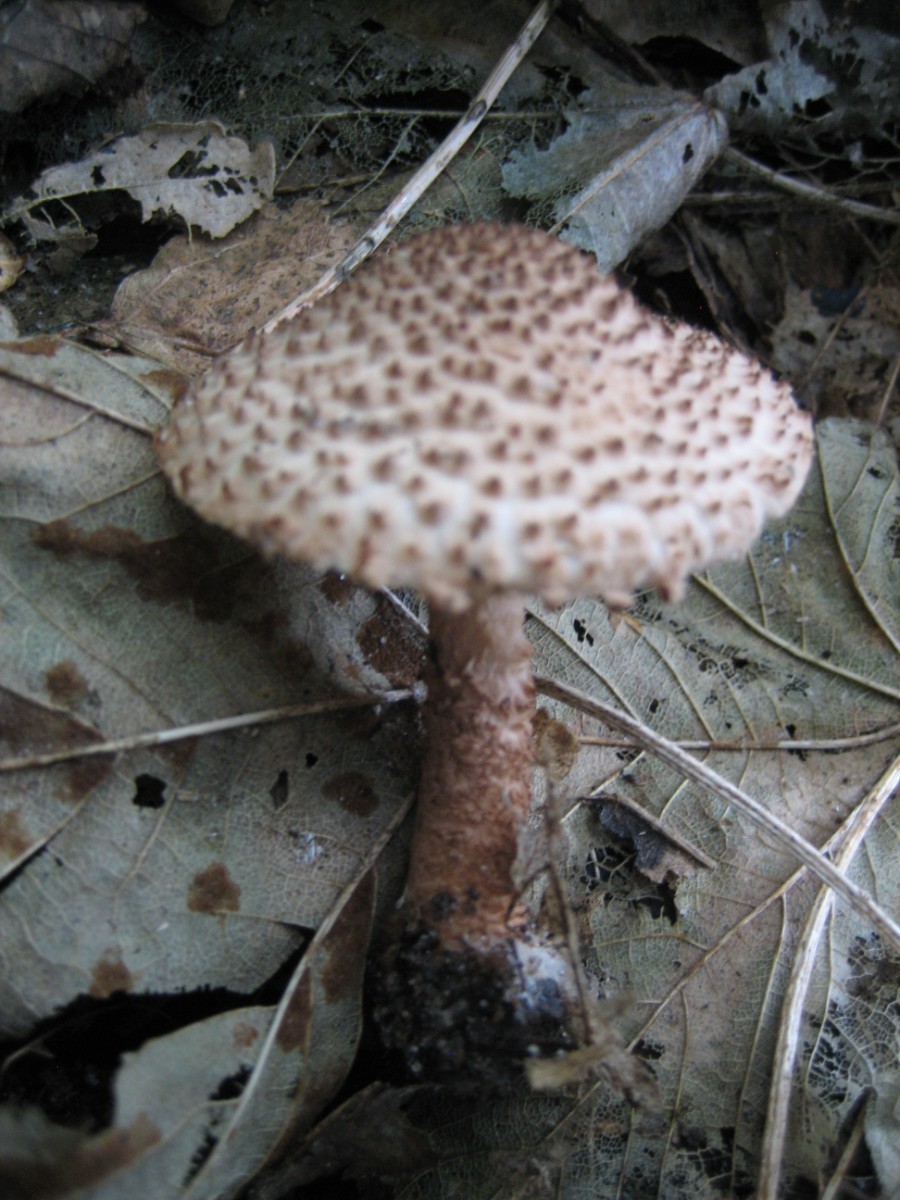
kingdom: Fungi
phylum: Basidiomycota
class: Agaricomycetes
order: Agaricales
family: Agaricaceae
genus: Echinoderma
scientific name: Echinoderma echinaceum
